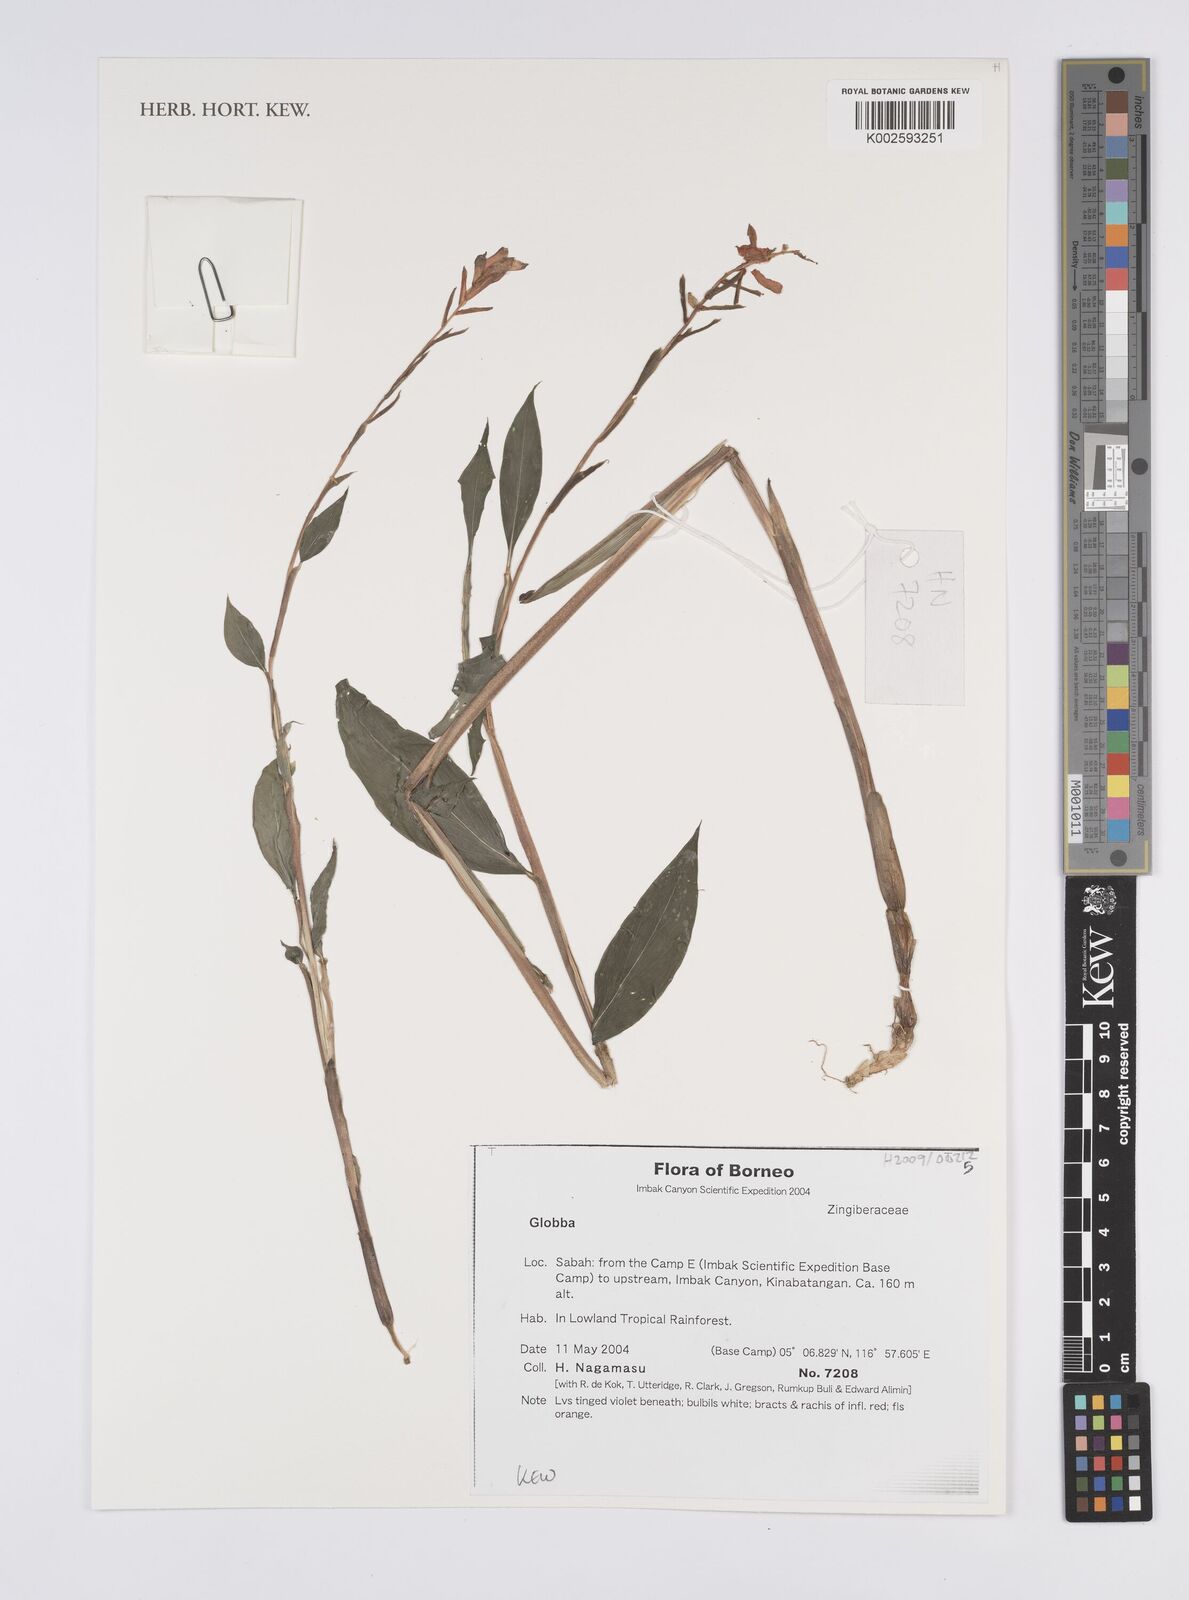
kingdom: Plantae
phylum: Tracheophyta
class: Liliopsida
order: Zingiberales
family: Zingiberaceae
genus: Globba
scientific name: Globba
